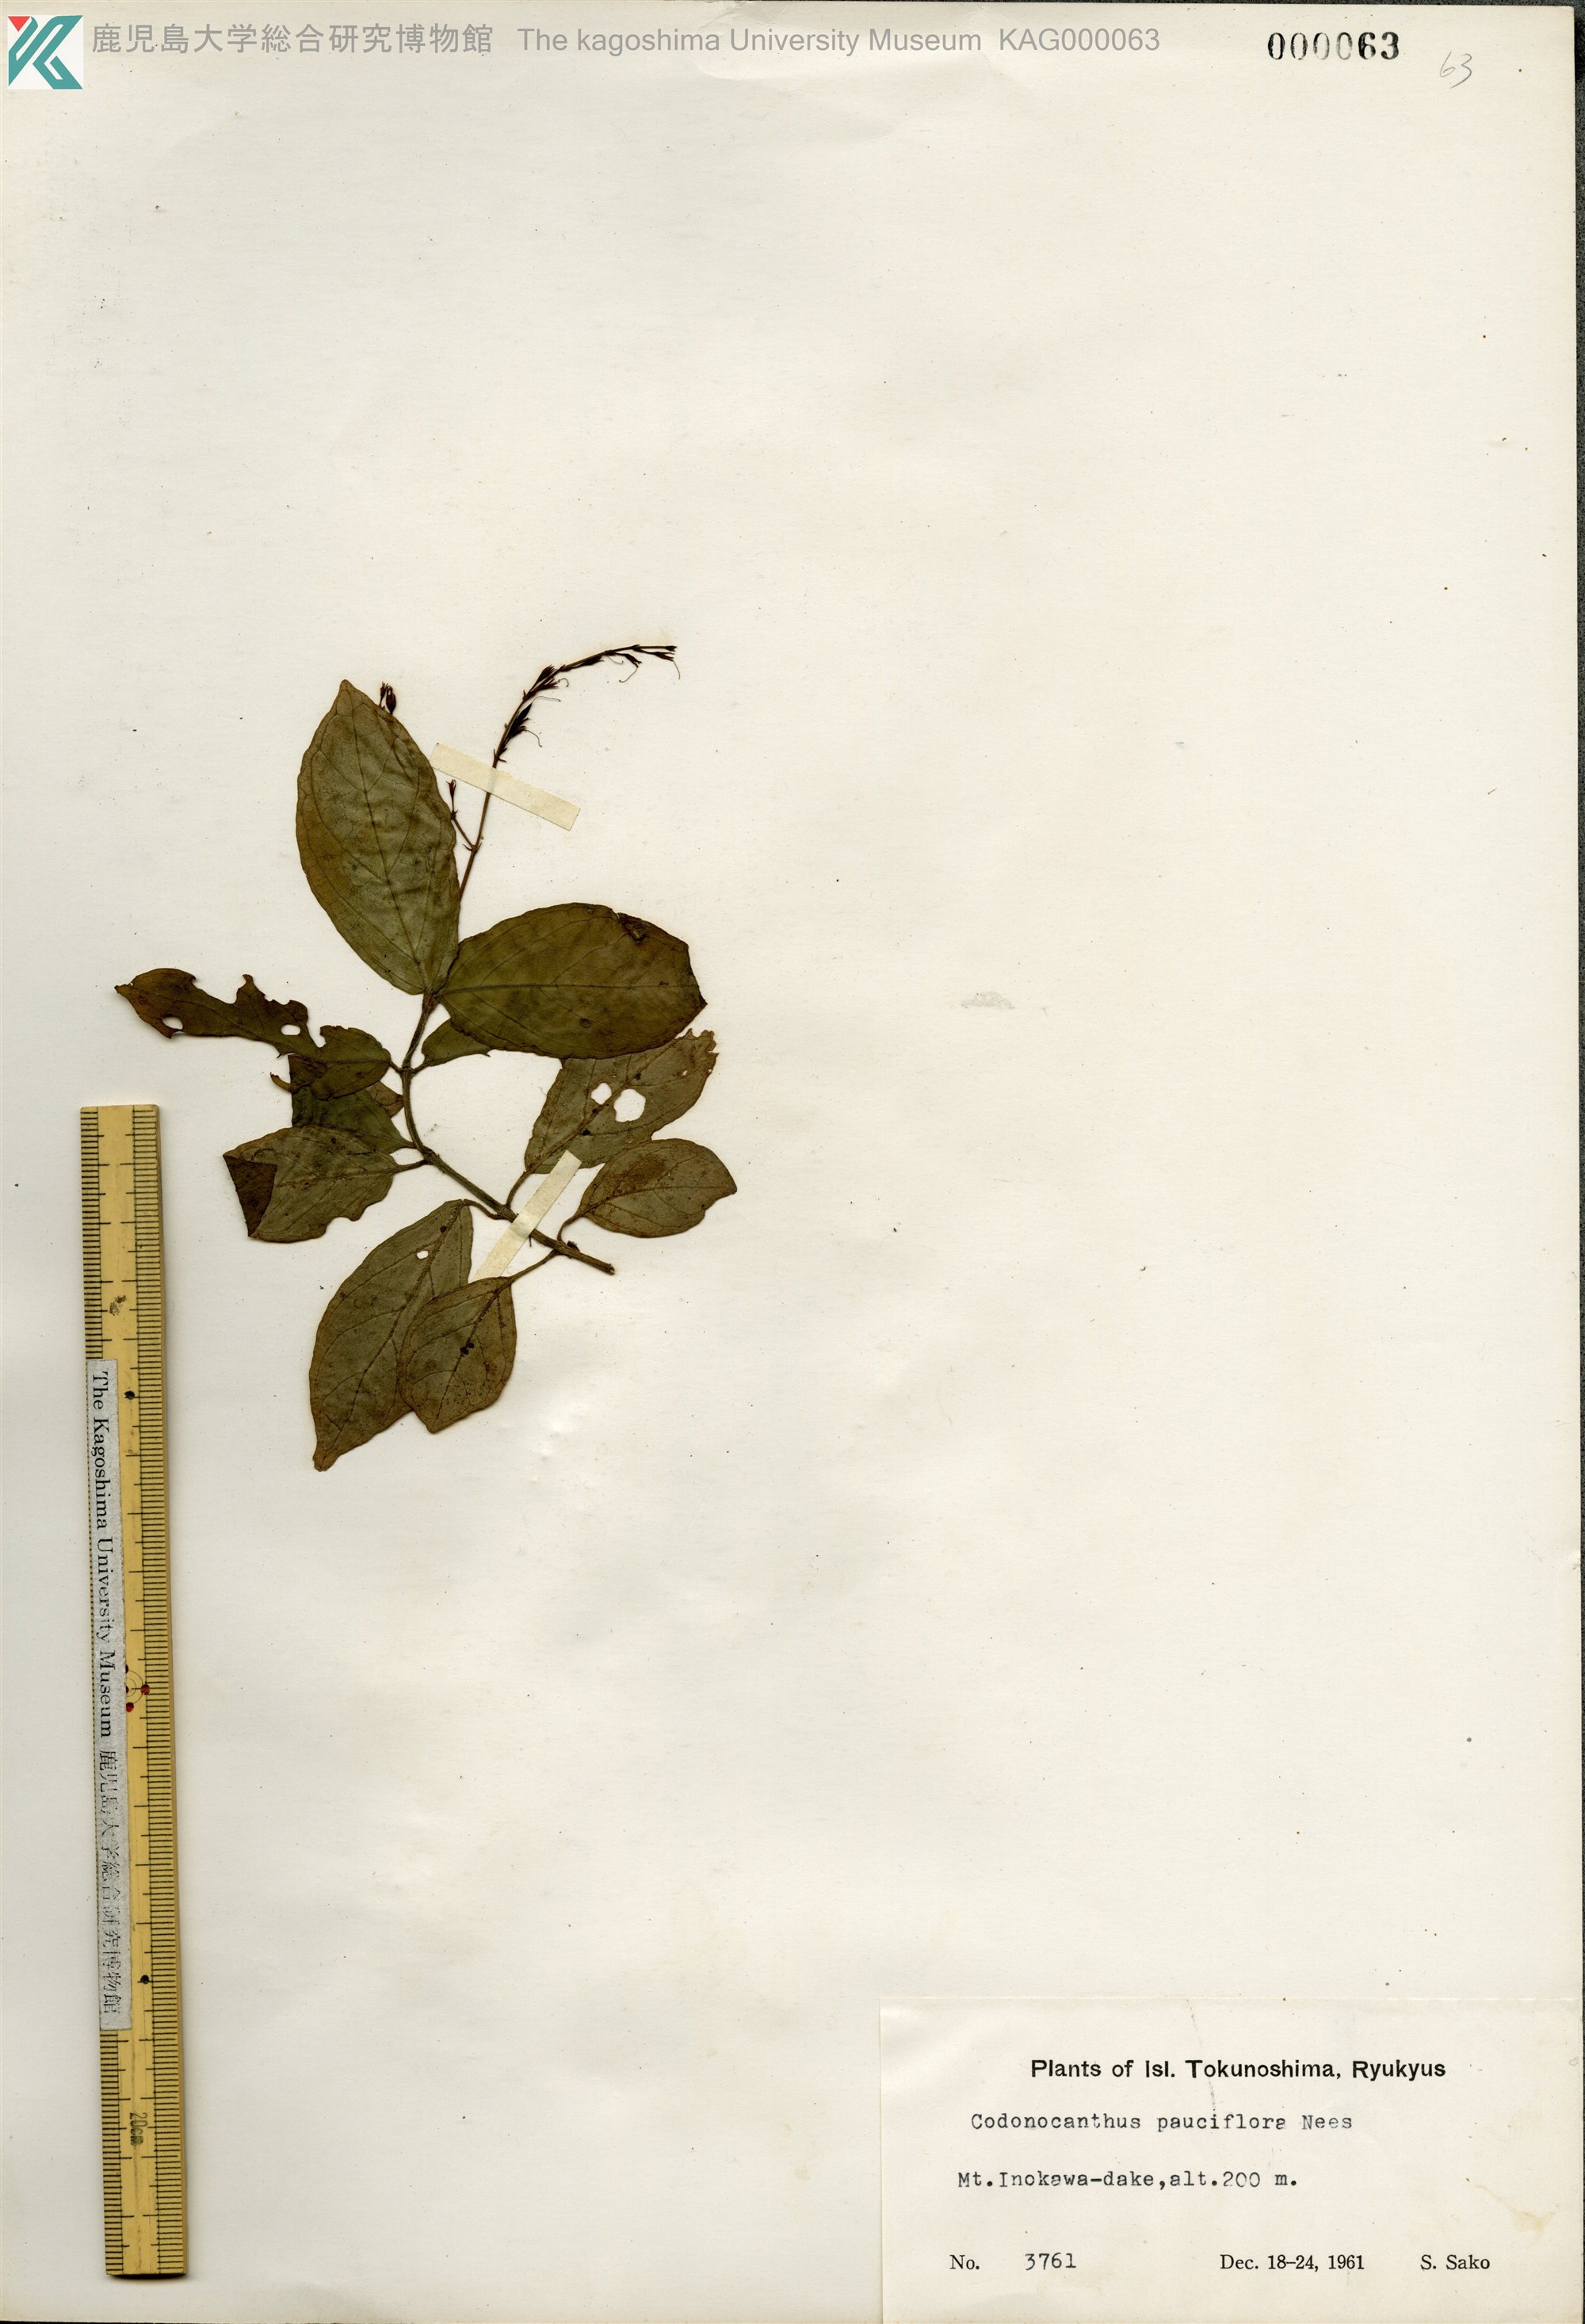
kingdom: Plantae
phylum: Tracheophyta
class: Magnoliopsida
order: Lamiales
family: Acanthaceae
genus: Codonacanthus
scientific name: Codonacanthus pauciflorus
